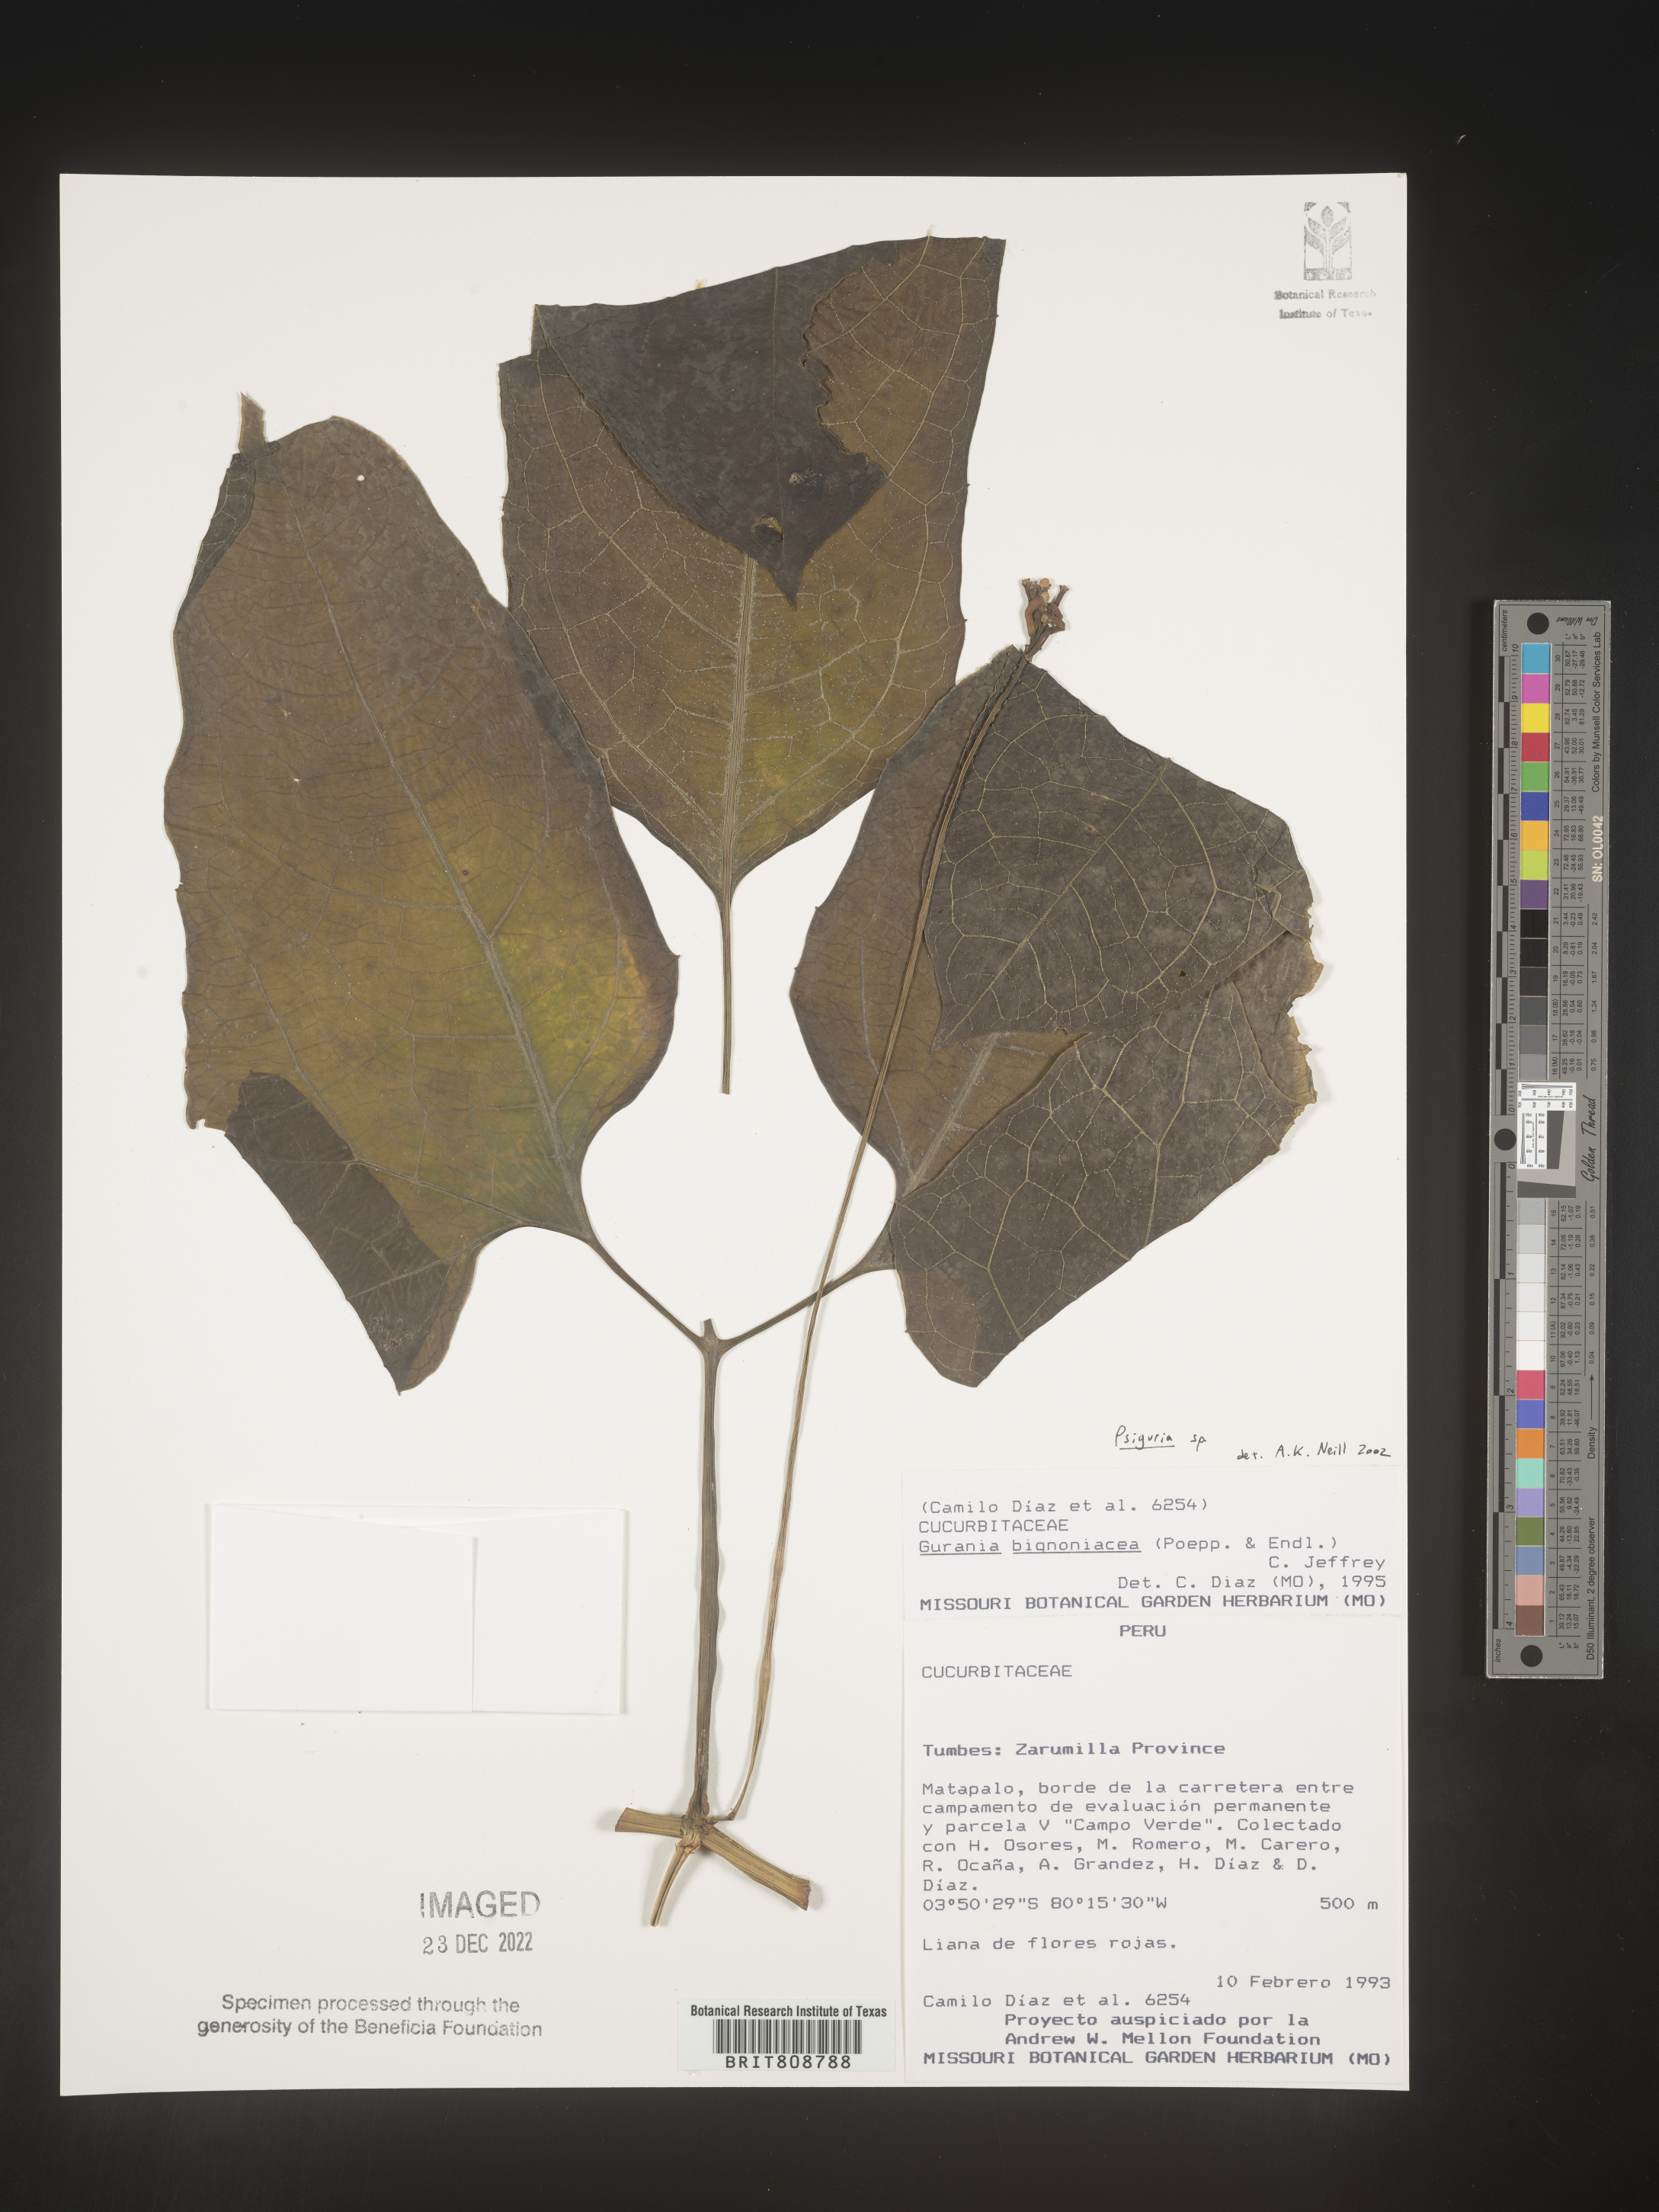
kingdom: Plantae
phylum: Tracheophyta
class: Magnoliopsida
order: Cucurbitales
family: Cucurbitaceae
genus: Psiguria
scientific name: Psiguria
